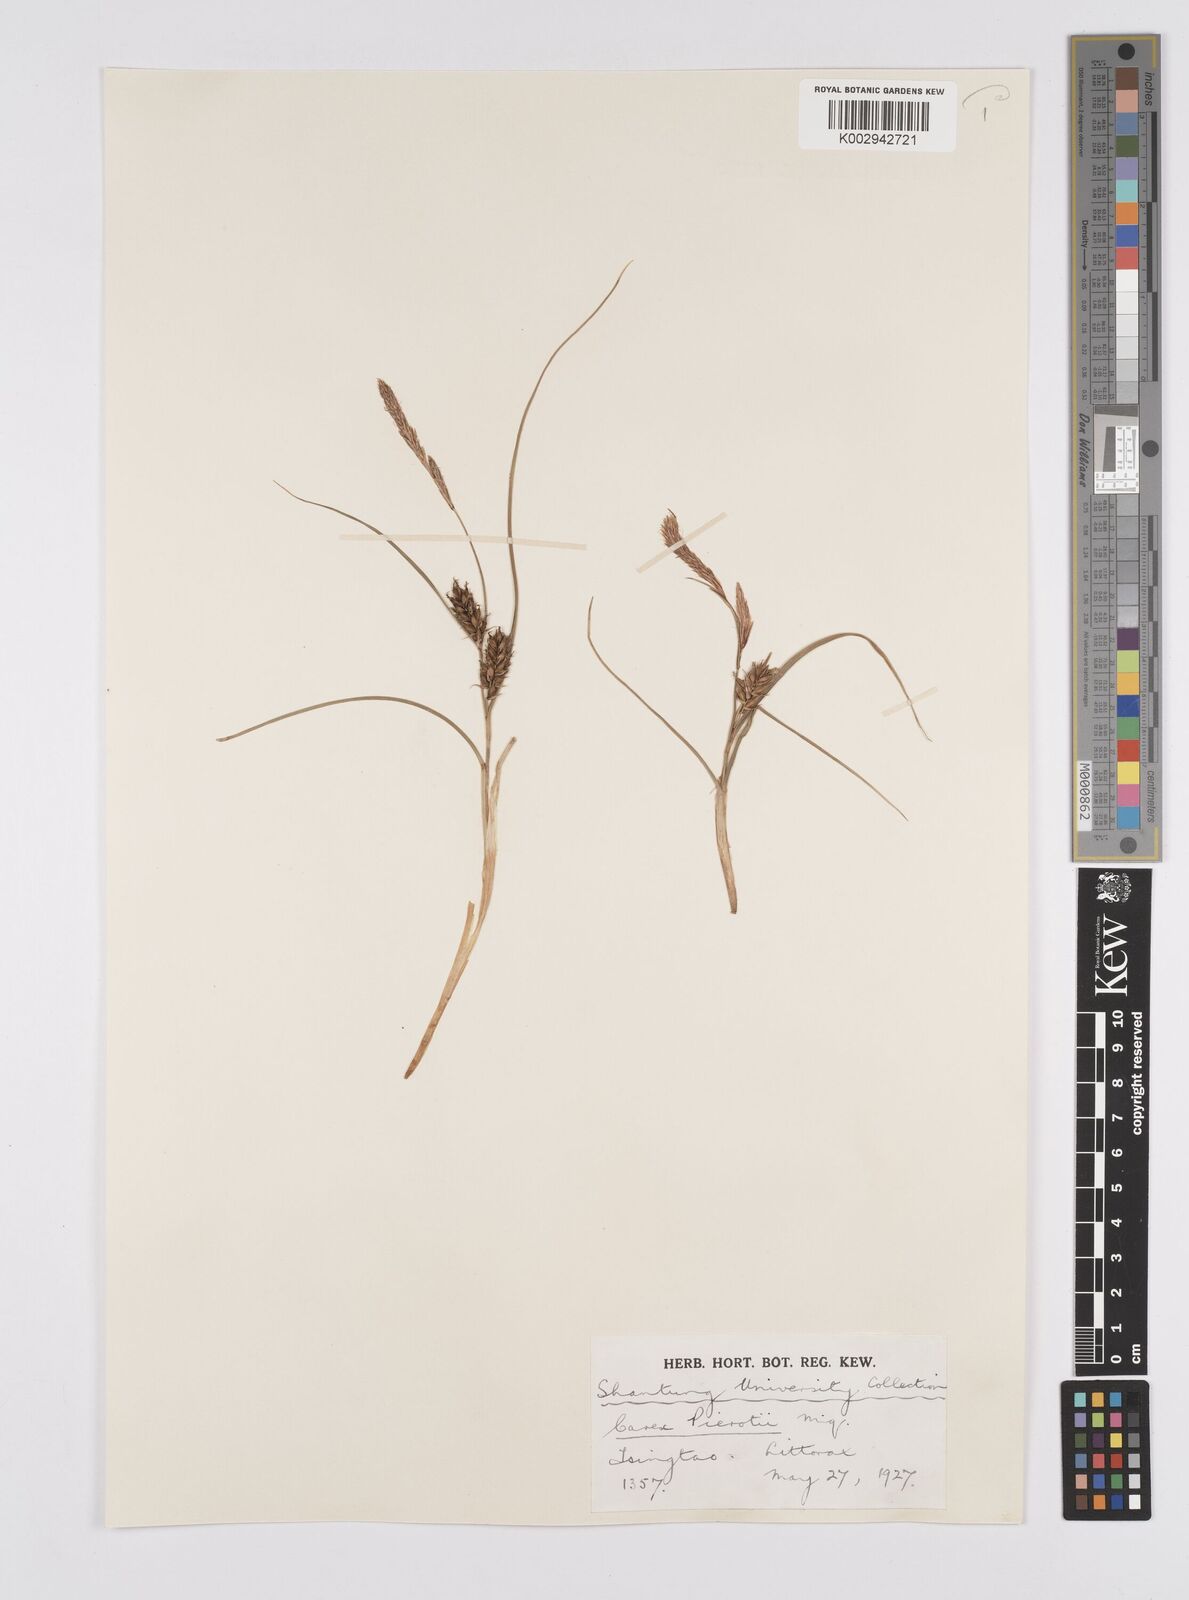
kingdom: Plantae
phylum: Tracheophyta
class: Liliopsida
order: Poales
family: Cyperaceae
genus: Carex
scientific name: Carex scabrifolia
